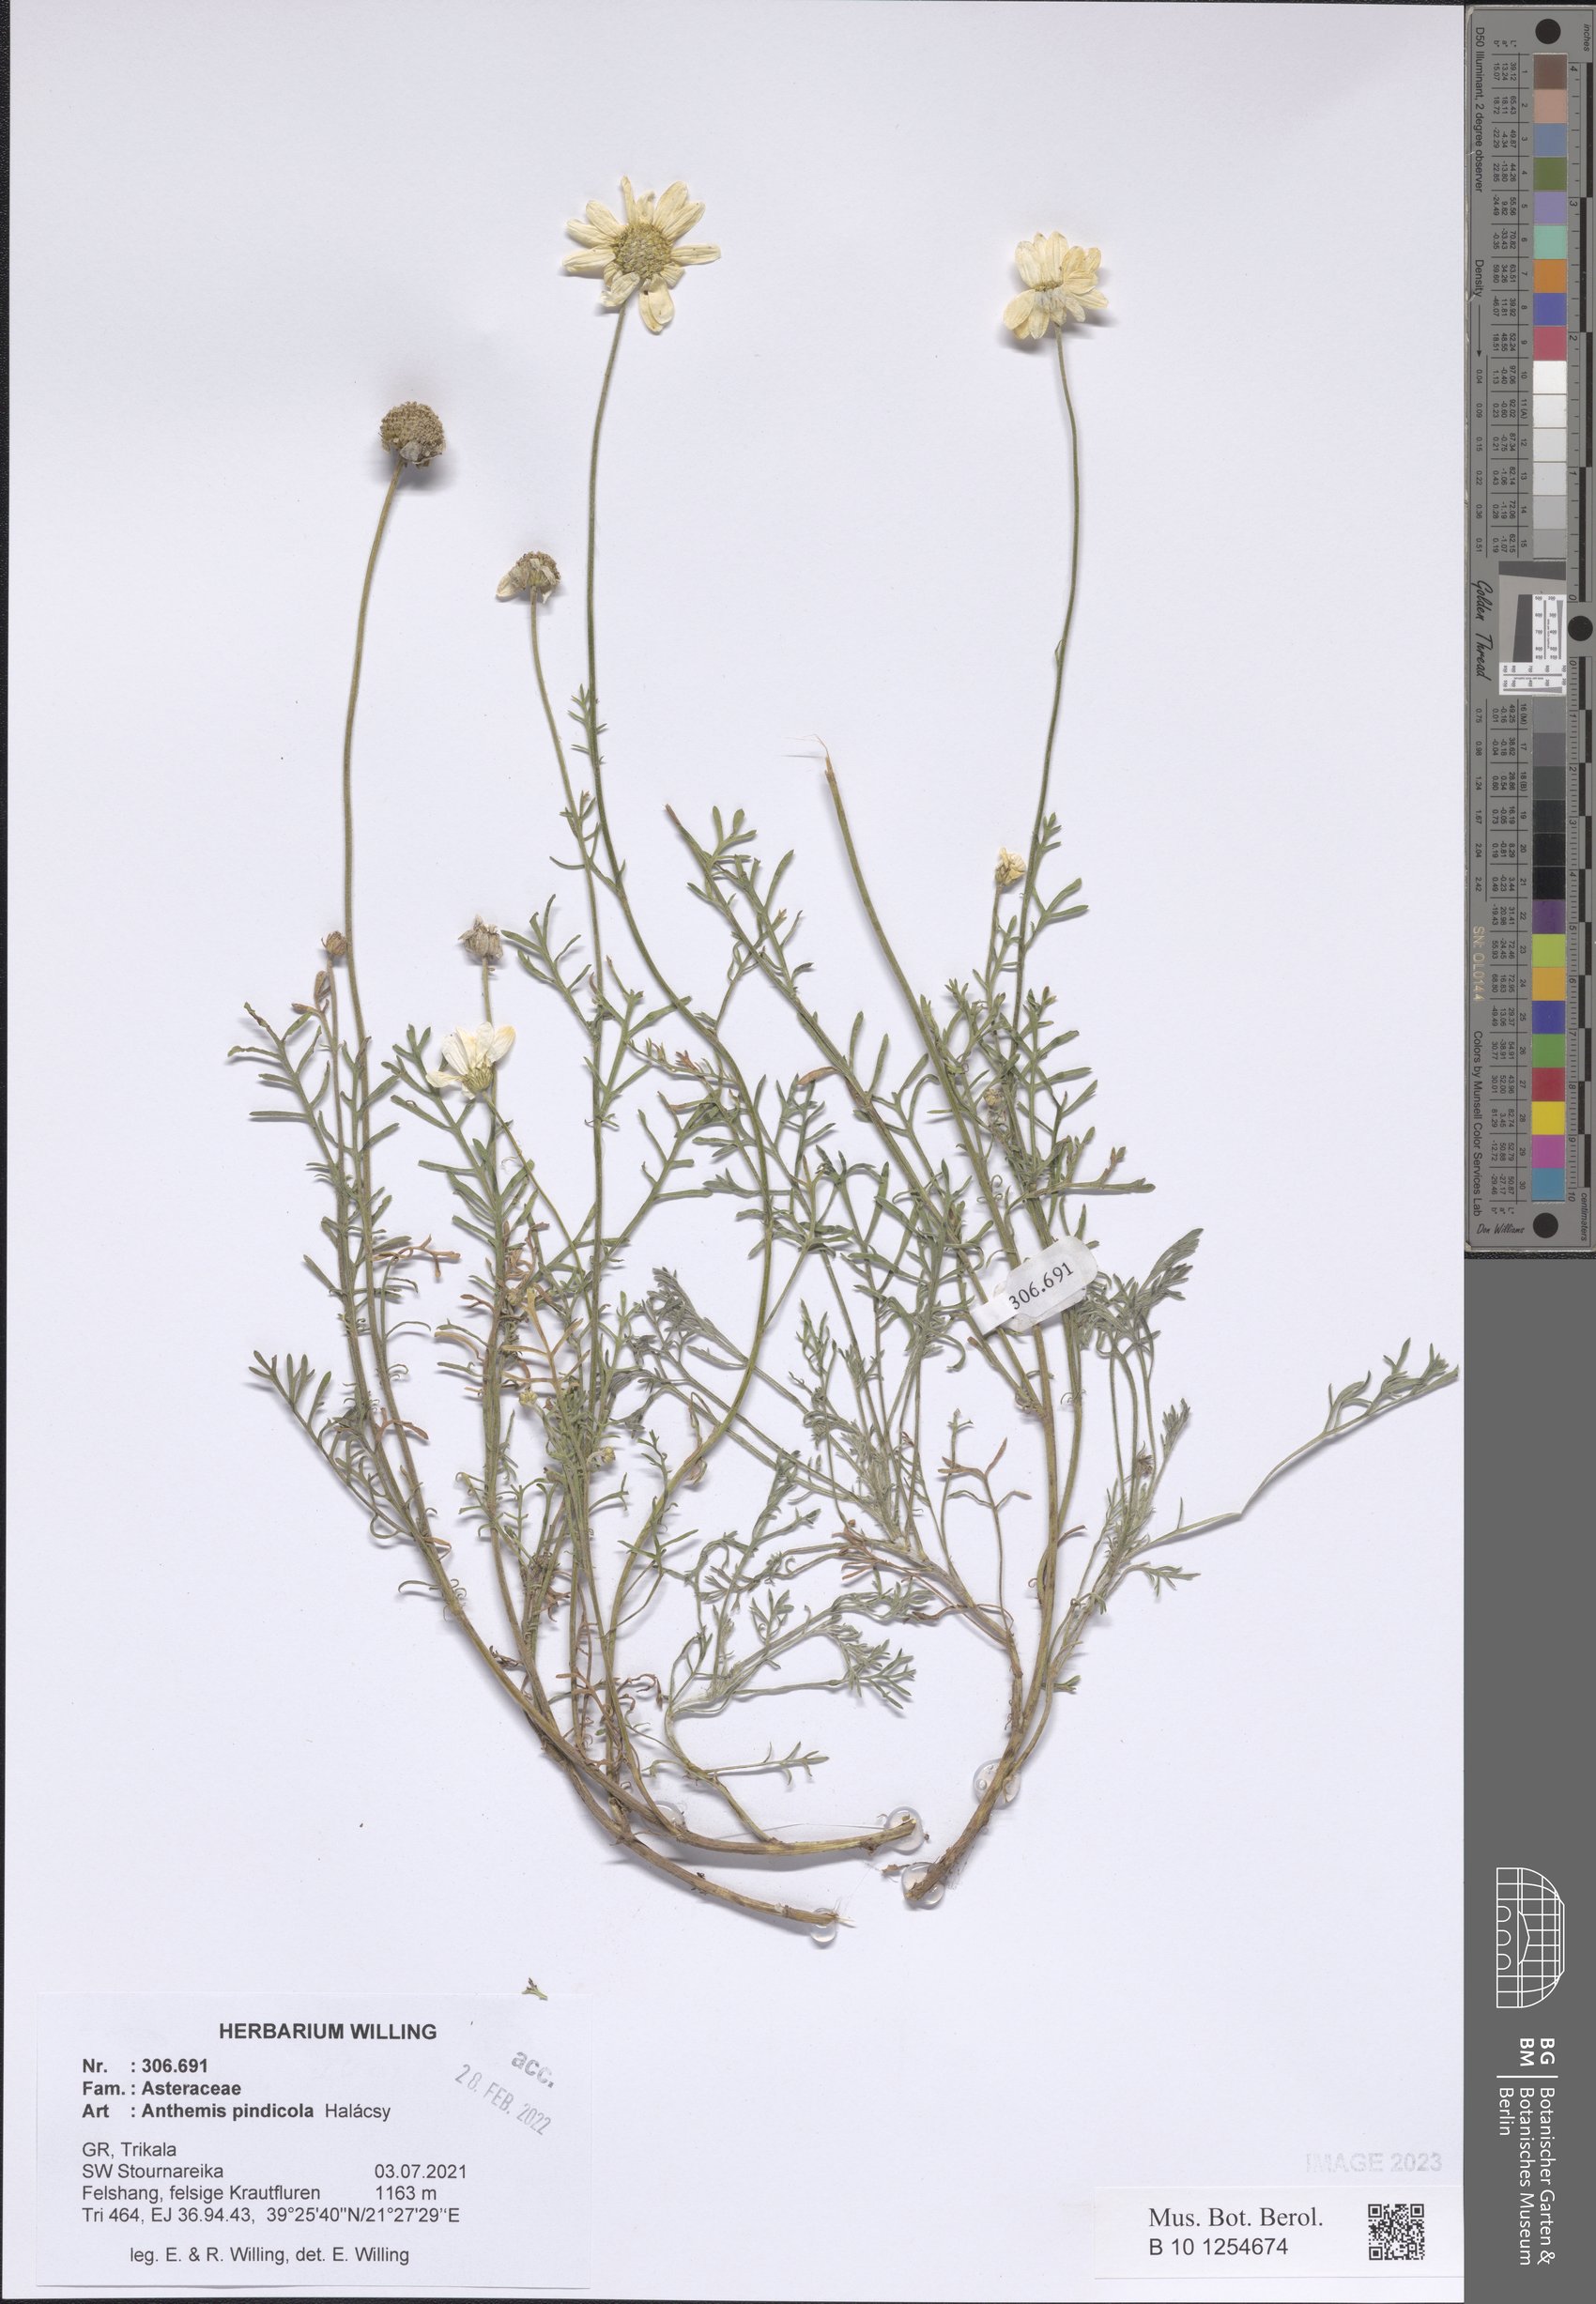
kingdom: Plantae
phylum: Tracheophyta
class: Magnoliopsida
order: Asterales
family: Asteraceae
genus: Anthemis
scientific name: Anthemis pindicola
